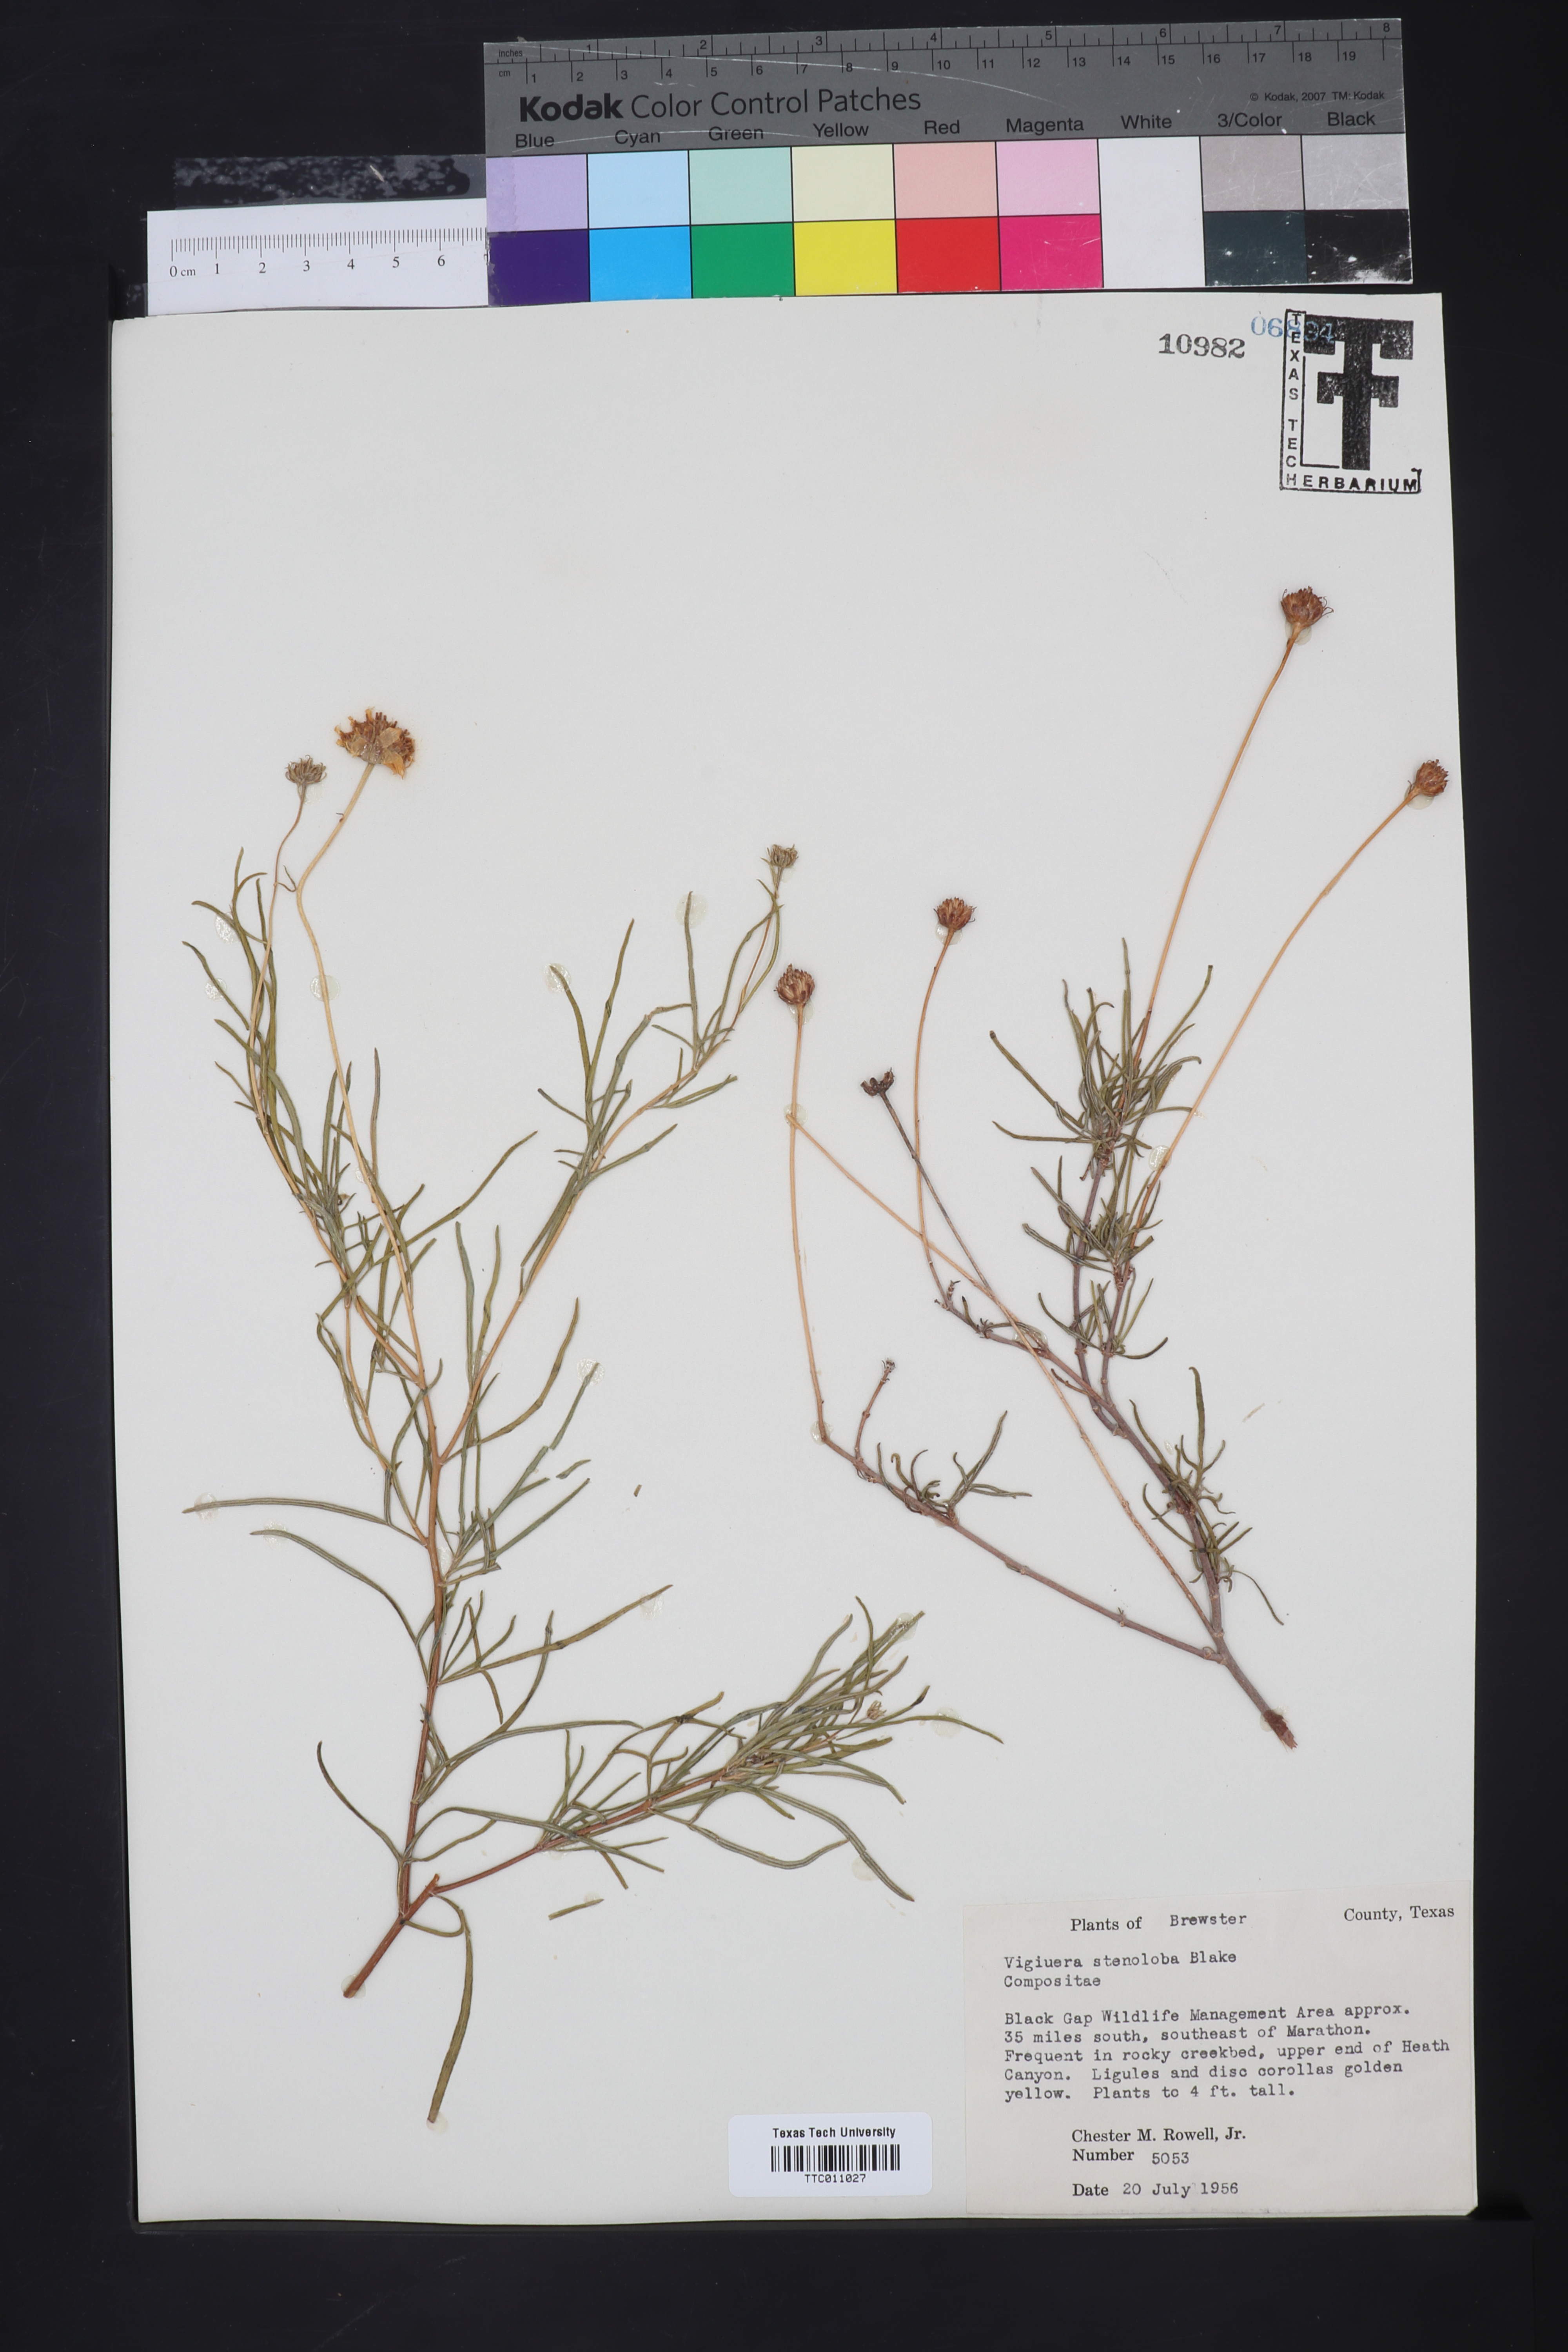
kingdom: Plantae
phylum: Tracheophyta
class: Magnoliopsida
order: Asterales
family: Asteraceae
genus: Sidneya
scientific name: Sidneya tenuifolia
